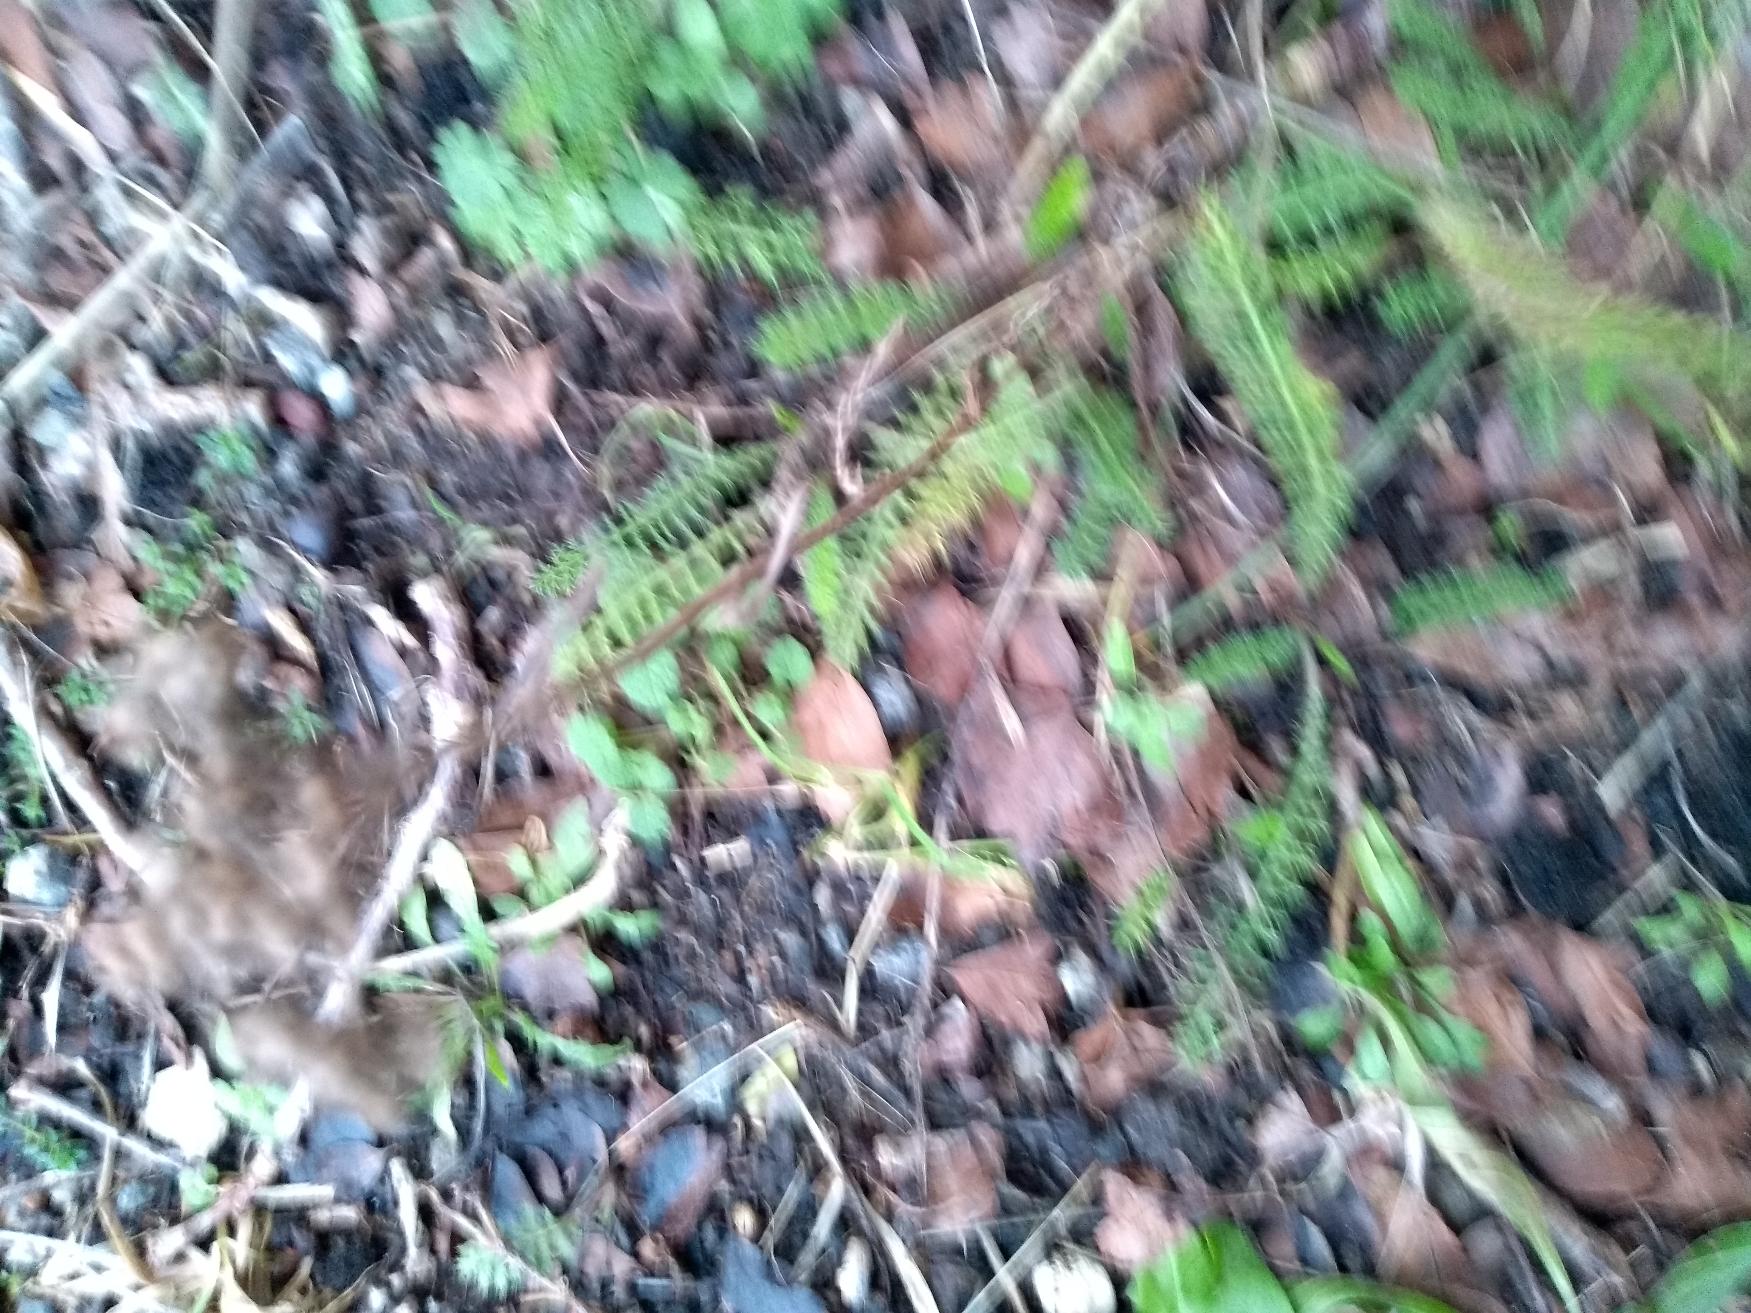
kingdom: Plantae
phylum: Tracheophyta
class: Magnoliopsida
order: Asterales
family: Asteraceae
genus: Achillea
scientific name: Achillea millefolium
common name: Almindelig røllike
